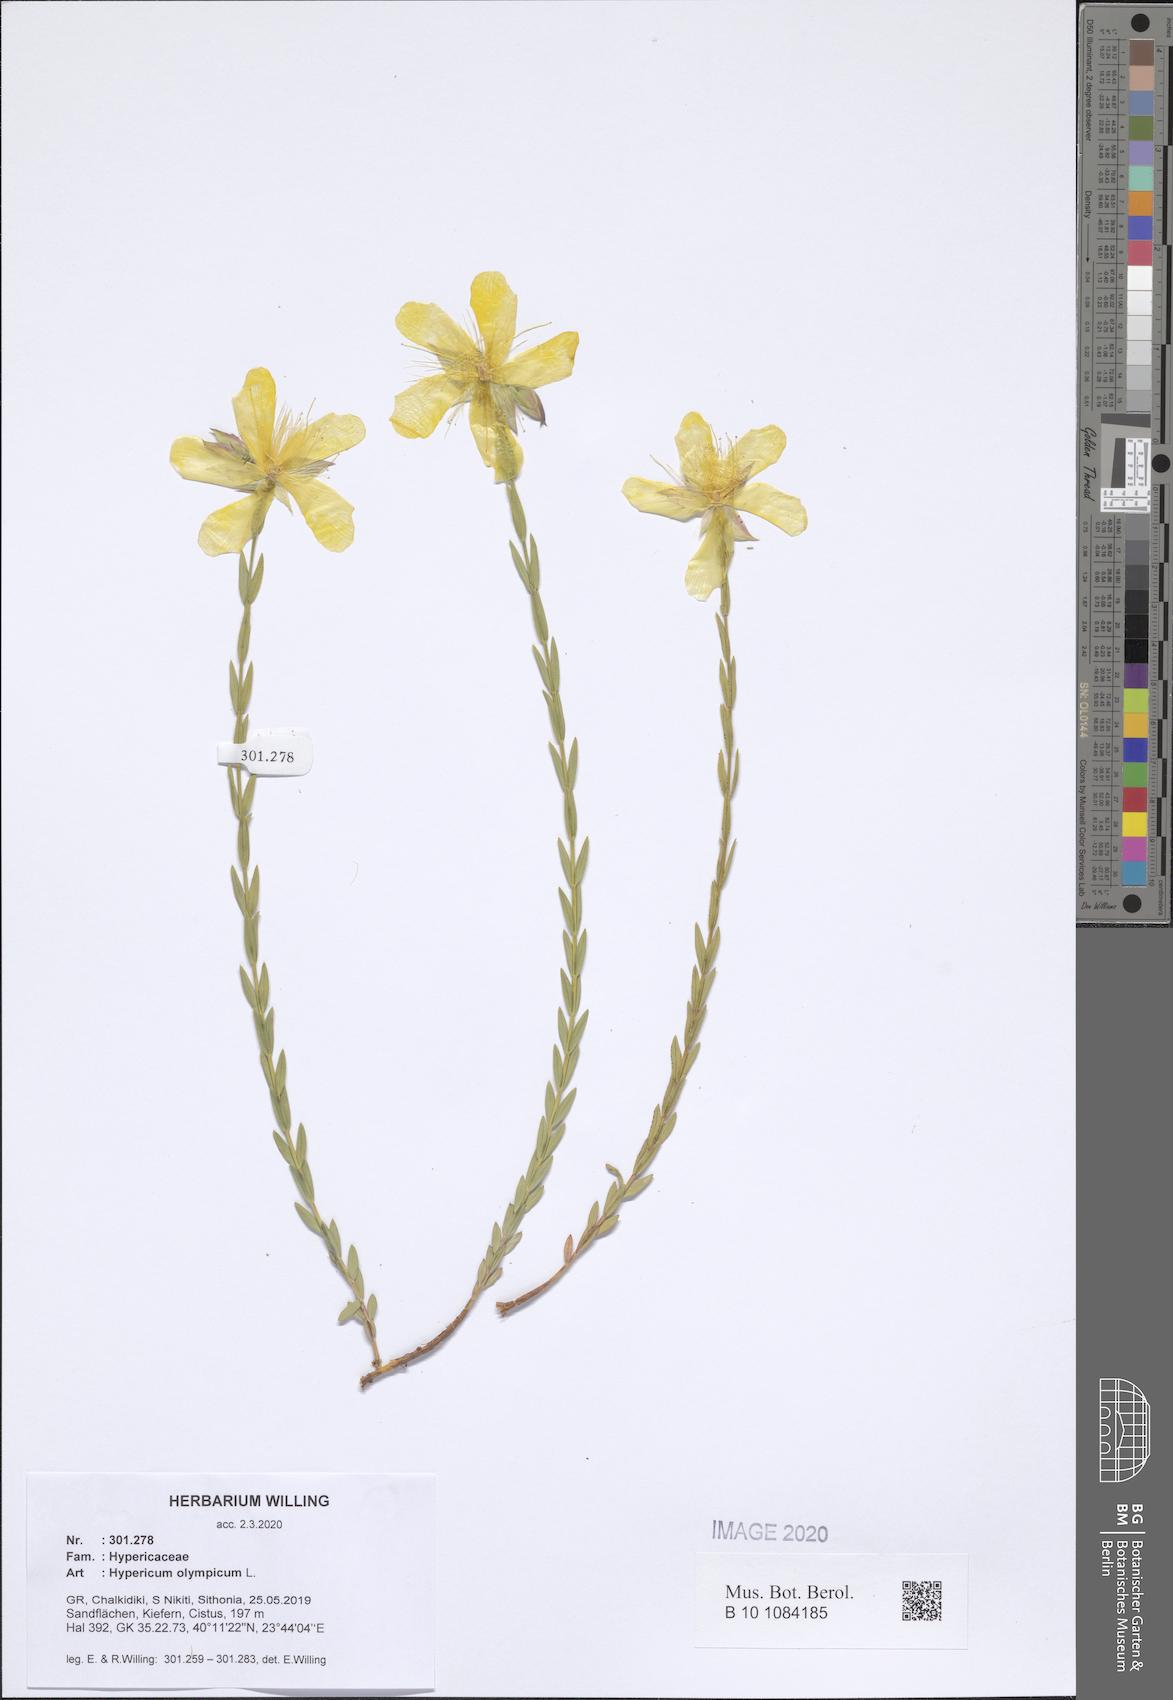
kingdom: Plantae
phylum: Tracheophyta
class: Magnoliopsida
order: Malpighiales
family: Hypericaceae
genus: Hypericum
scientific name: Hypericum olympicum
